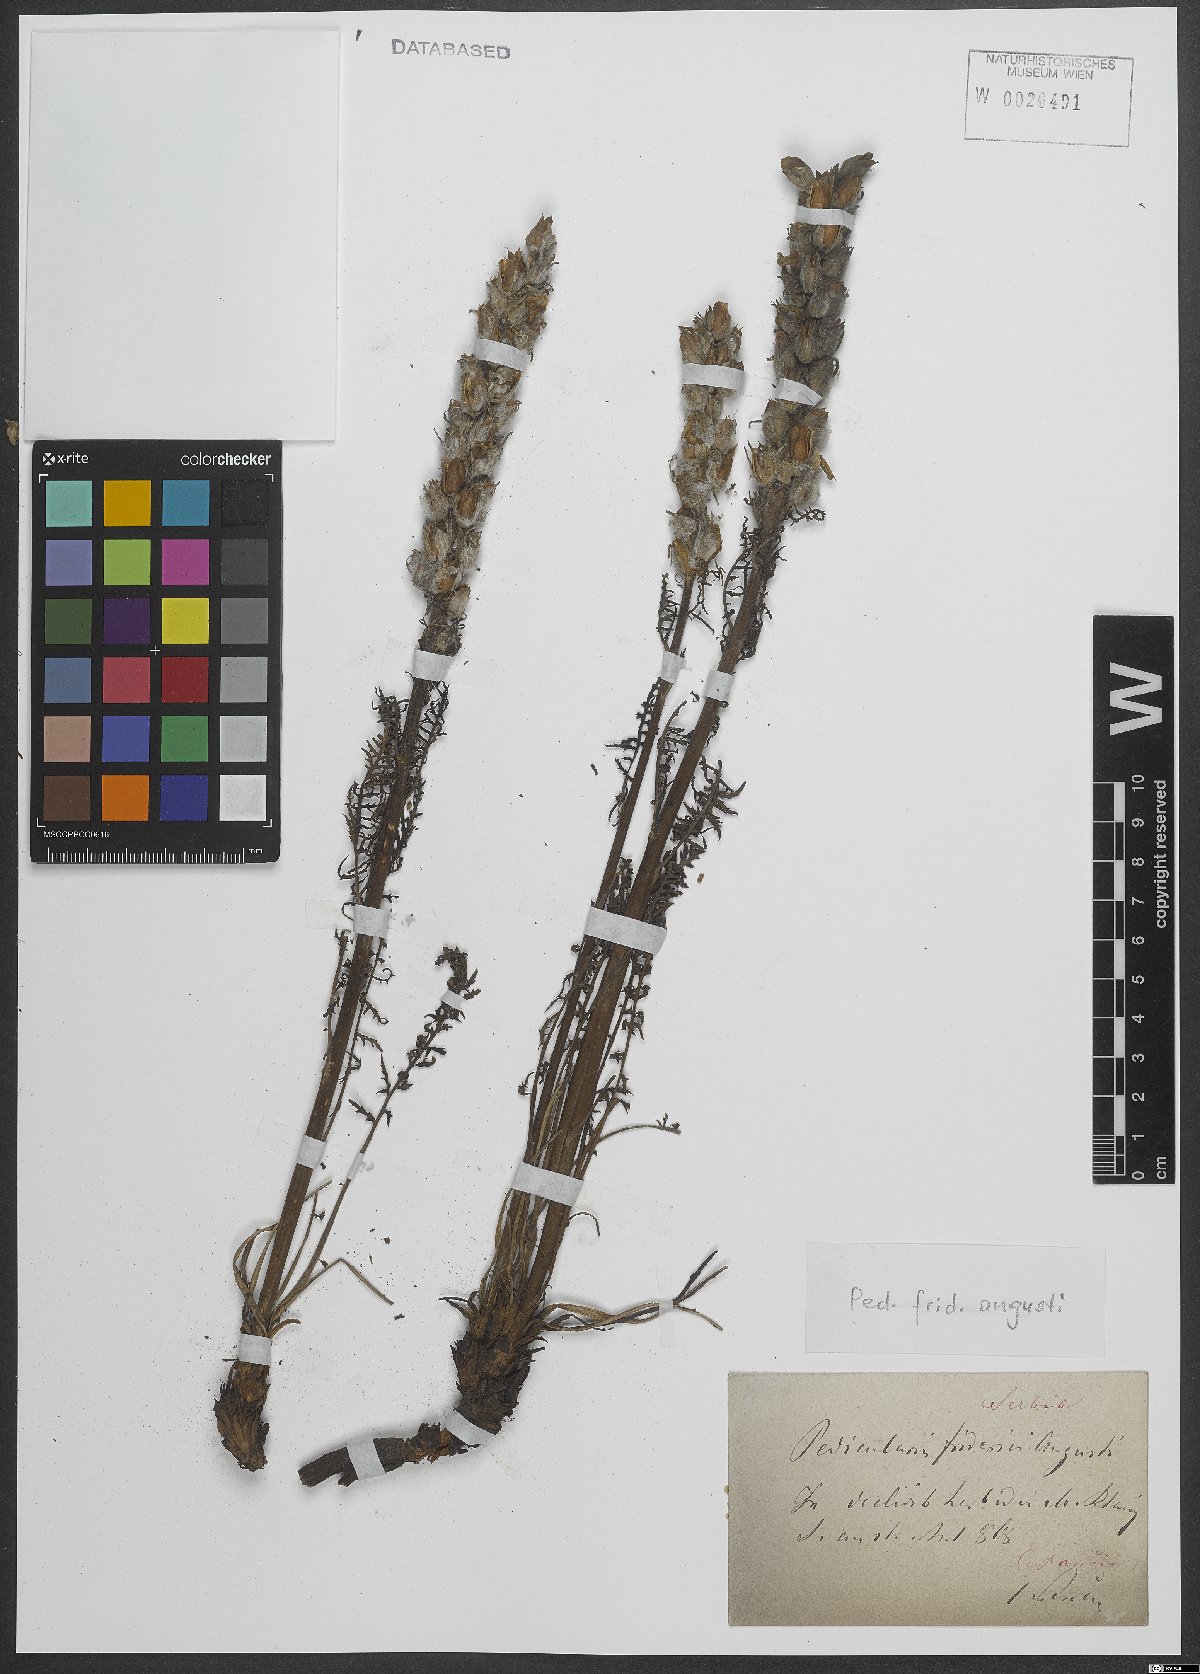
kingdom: Plantae
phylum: Tracheophyta
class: Magnoliopsida
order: Lamiales
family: Orobanchaceae
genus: Pedicularis
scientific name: Pedicularis friderici-augusti
